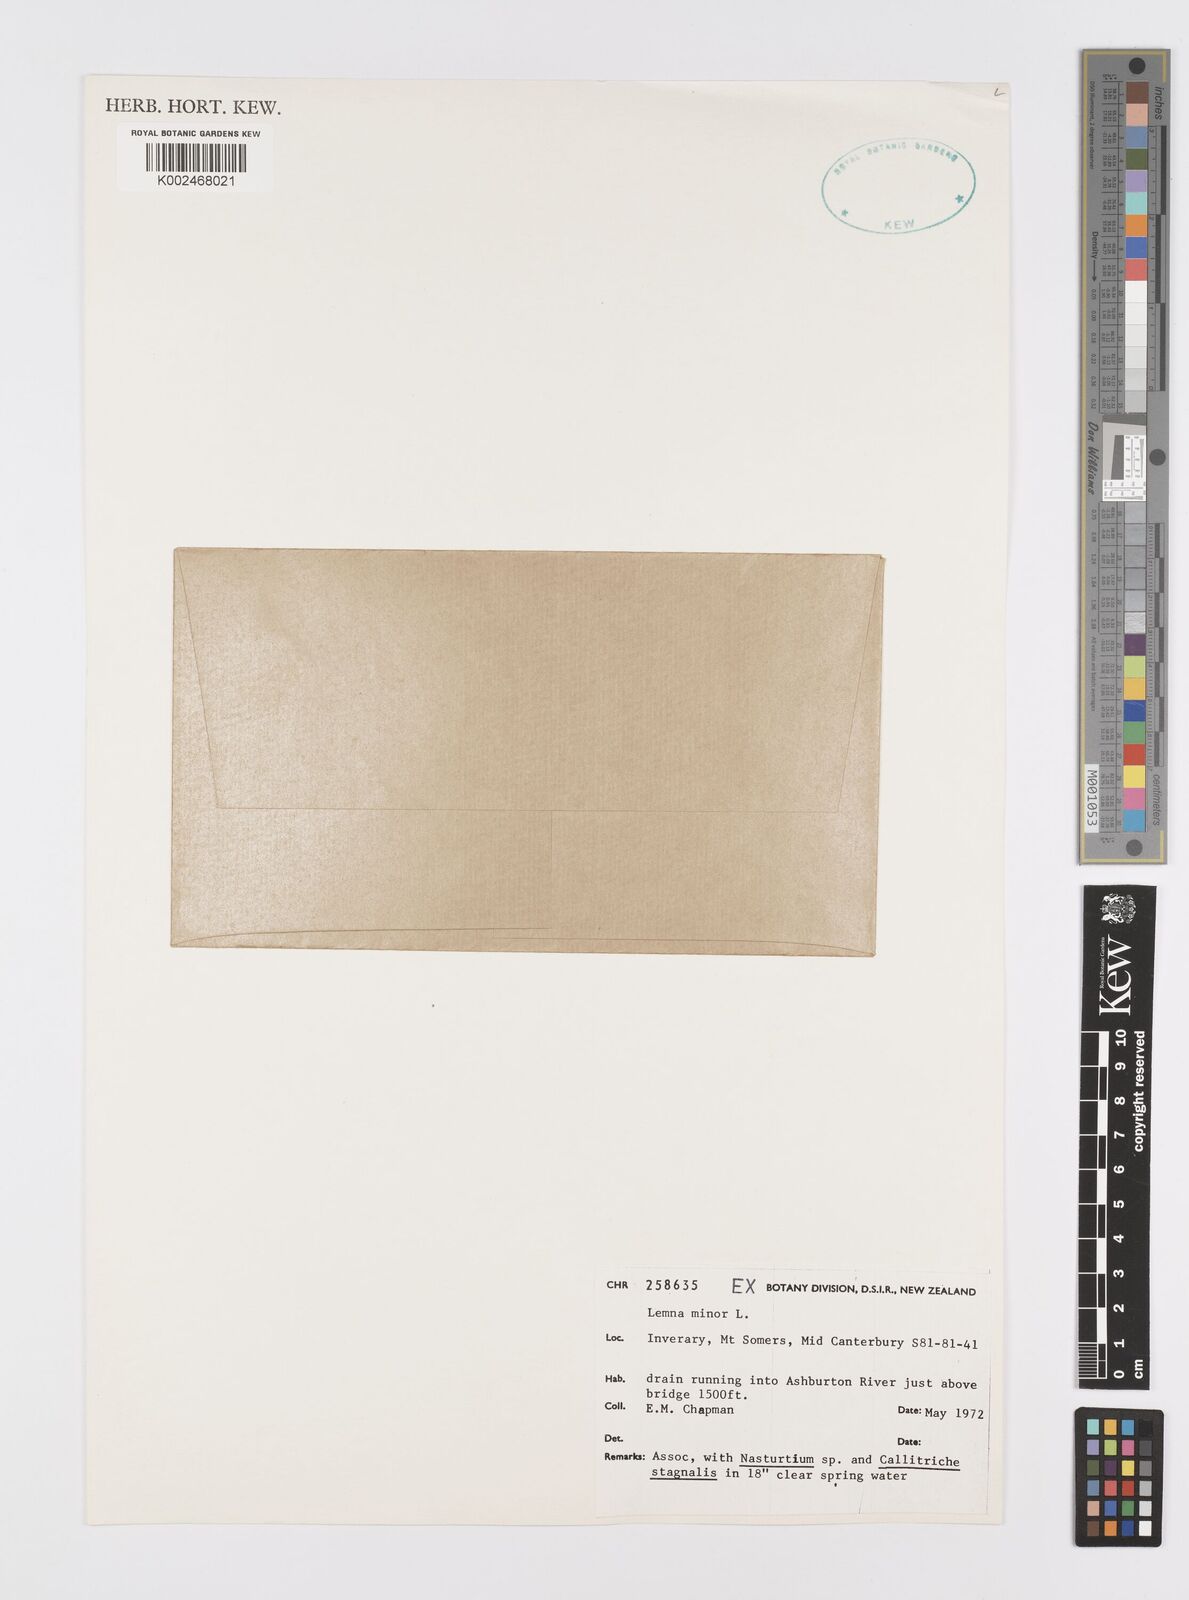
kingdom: Plantae
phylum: Tracheophyta
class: Liliopsida
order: Alismatales
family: Araceae
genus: Lemna
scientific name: Lemna minor
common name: Common duckweed
